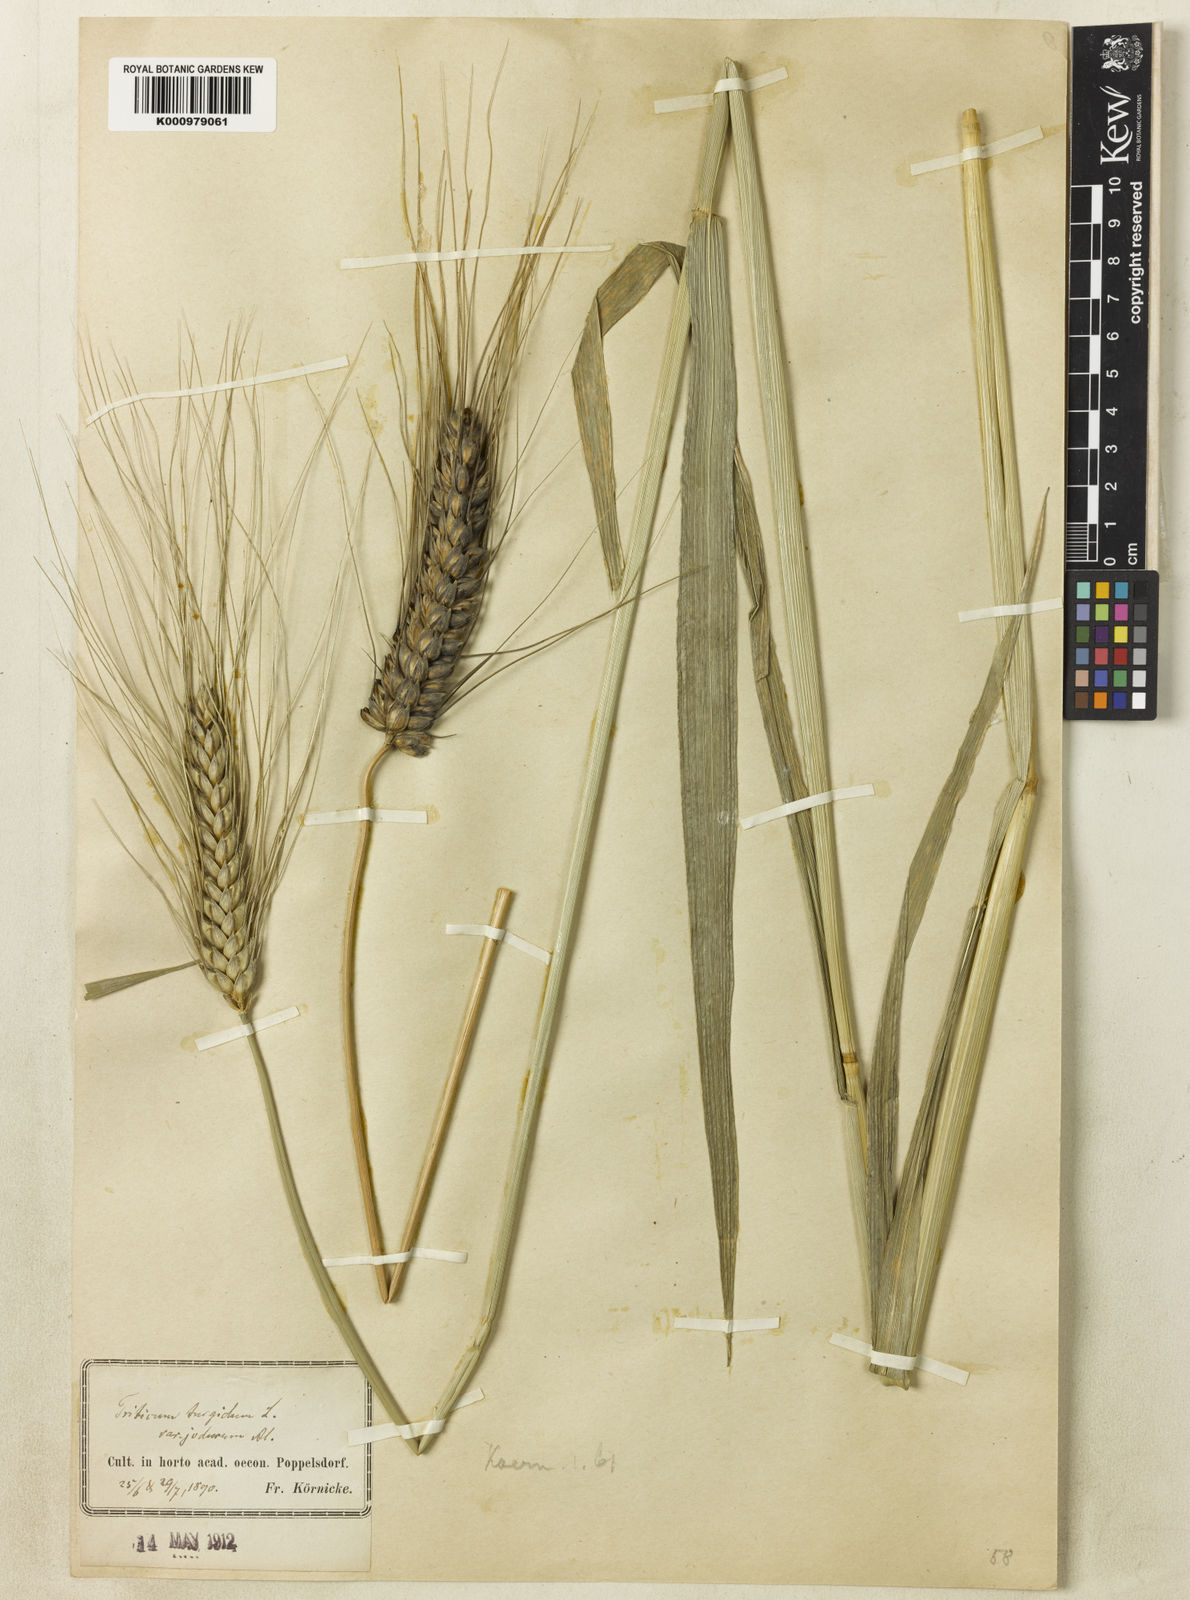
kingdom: Plantae
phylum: Tracheophyta
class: Liliopsida
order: Poales
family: Poaceae
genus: Triticum
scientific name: Triticum turgidum
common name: Rivet wheat
